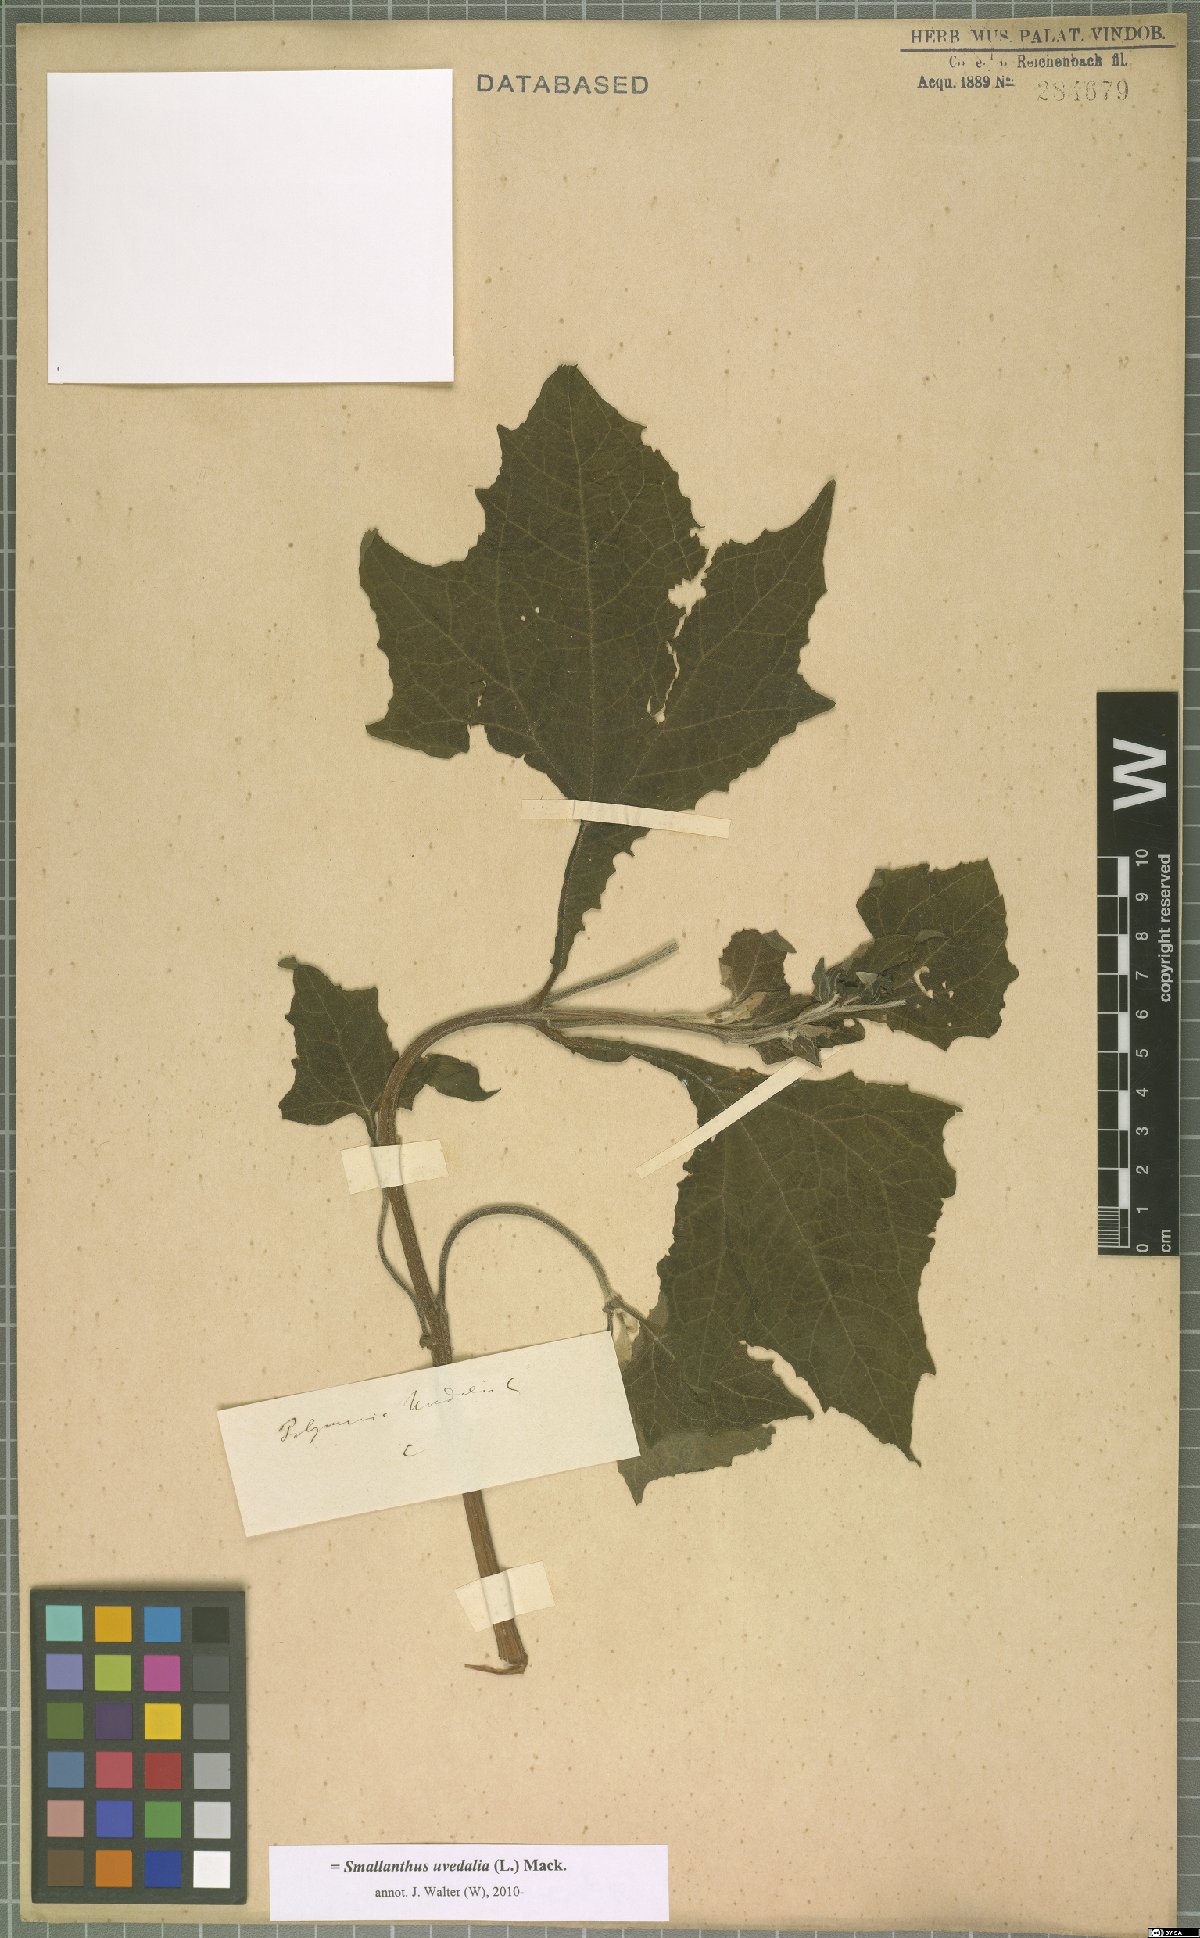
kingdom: Plantae
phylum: Tracheophyta
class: Magnoliopsida
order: Asterales
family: Asteraceae
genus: Smallanthus
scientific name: Smallanthus uvedalia
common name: Bear's-foot
